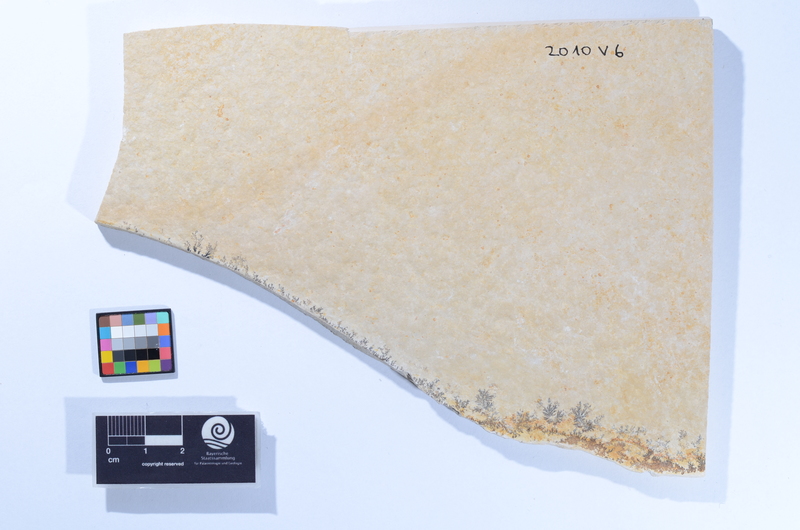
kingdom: Animalia
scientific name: Animalia
